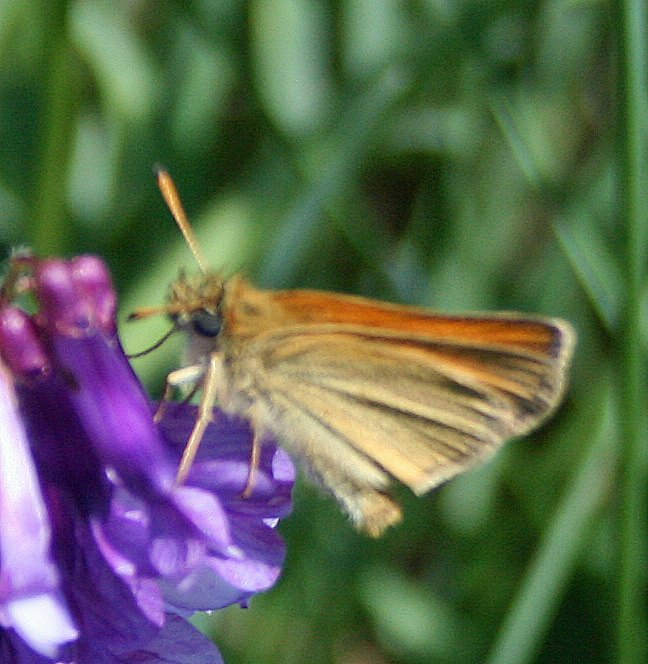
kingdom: Animalia
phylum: Arthropoda
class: Insecta
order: Lepidoptera
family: Hesperiidae
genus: Thymelicus
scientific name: Thymelicus lineola
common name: European Skipper
